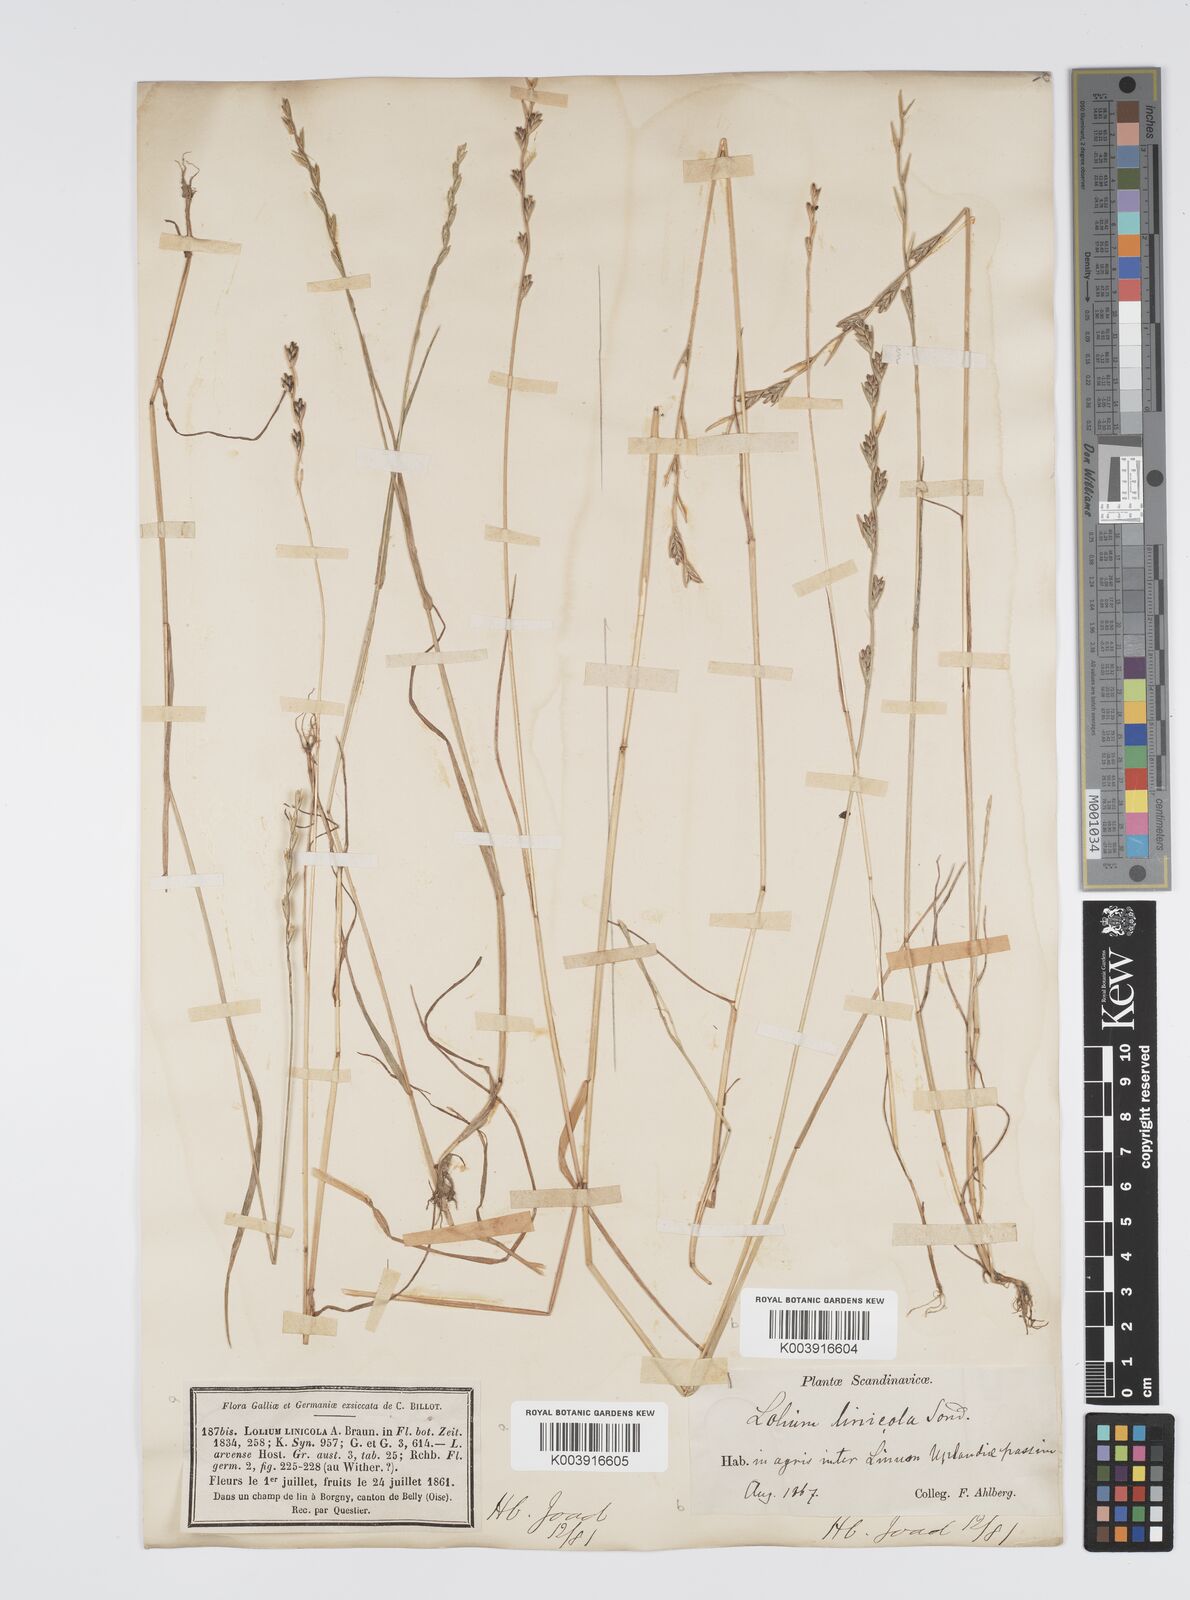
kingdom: Plantae
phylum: Tracheophyta
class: Liliopsida
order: Poales
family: Poaceae
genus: Lolium
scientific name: Lolium remotum
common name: Flaxfield rye-grass
